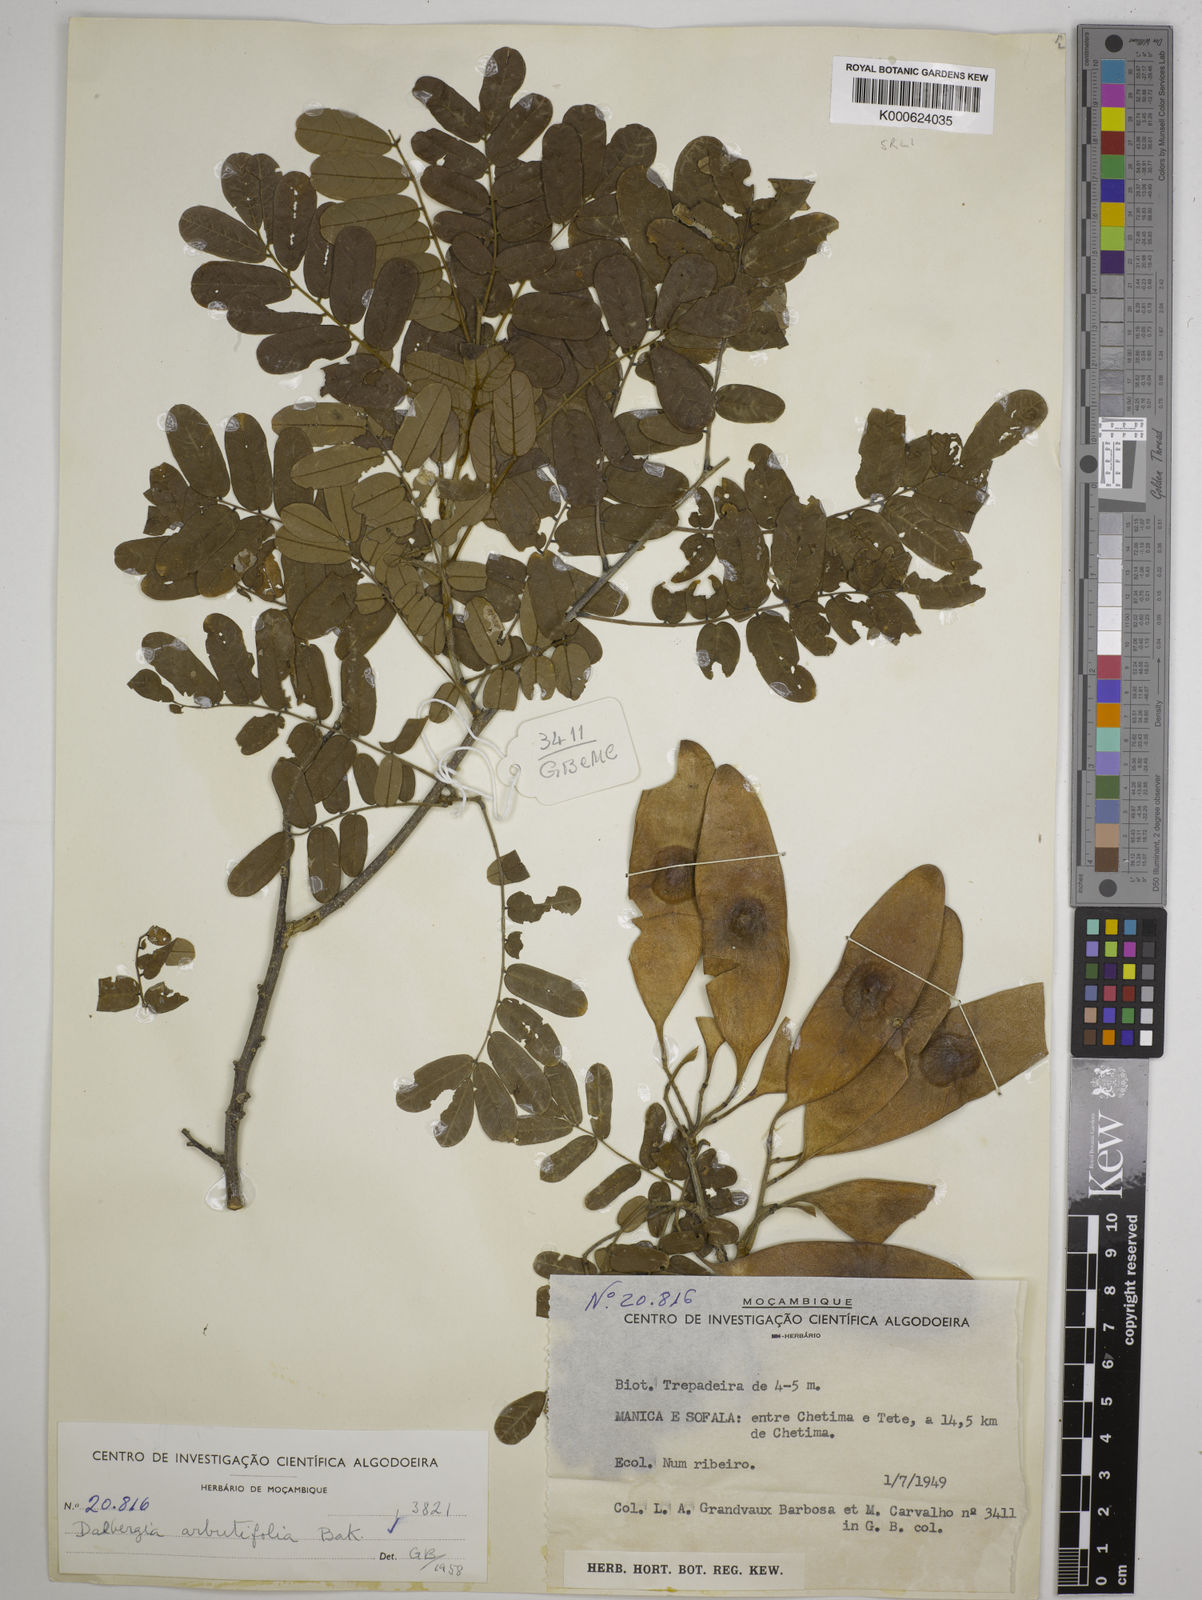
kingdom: Plantae
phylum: Tracheophyta
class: Magnoliopsida
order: Fabales
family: Fabaceae
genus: Dalbergia
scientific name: Dalbergia arbutifolia
